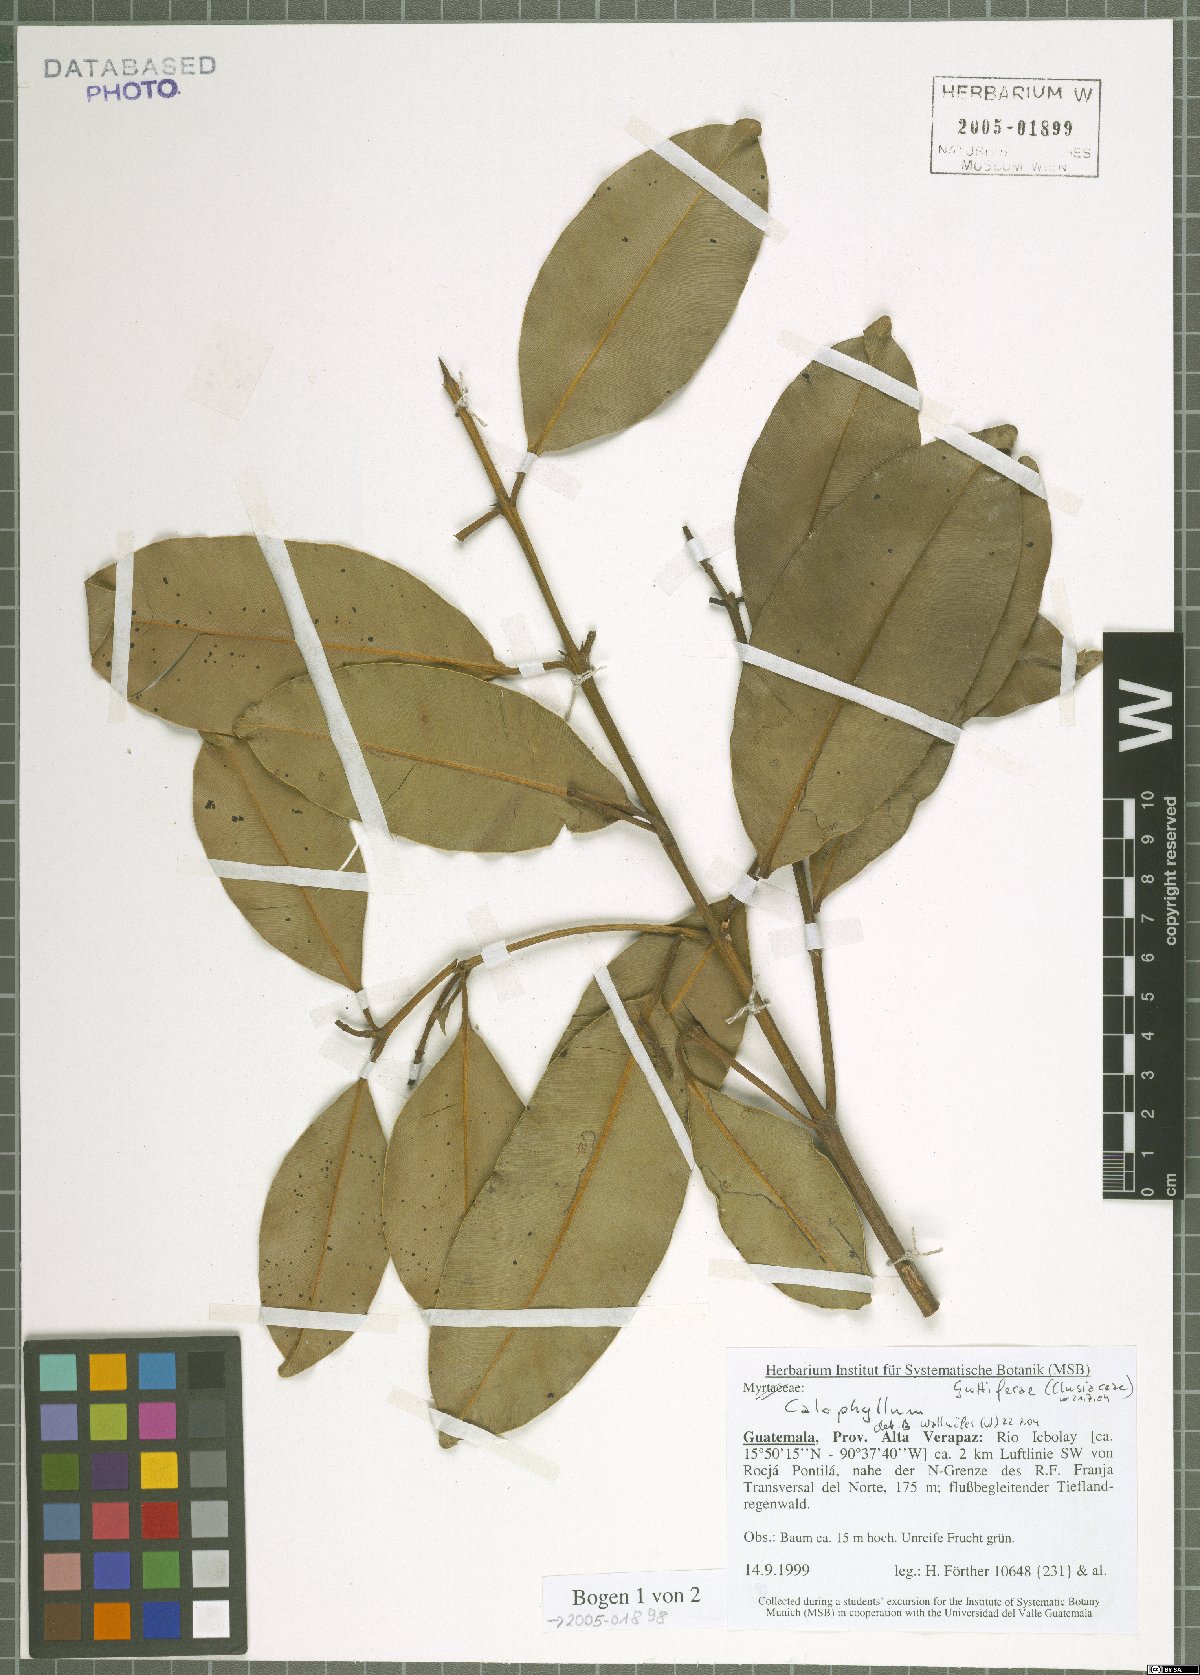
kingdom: Plantae
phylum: Tracheophyta
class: Magnoliopsida
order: Malpighiales
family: Calophyllaceae
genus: Calophyllum
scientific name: Calophyllum
